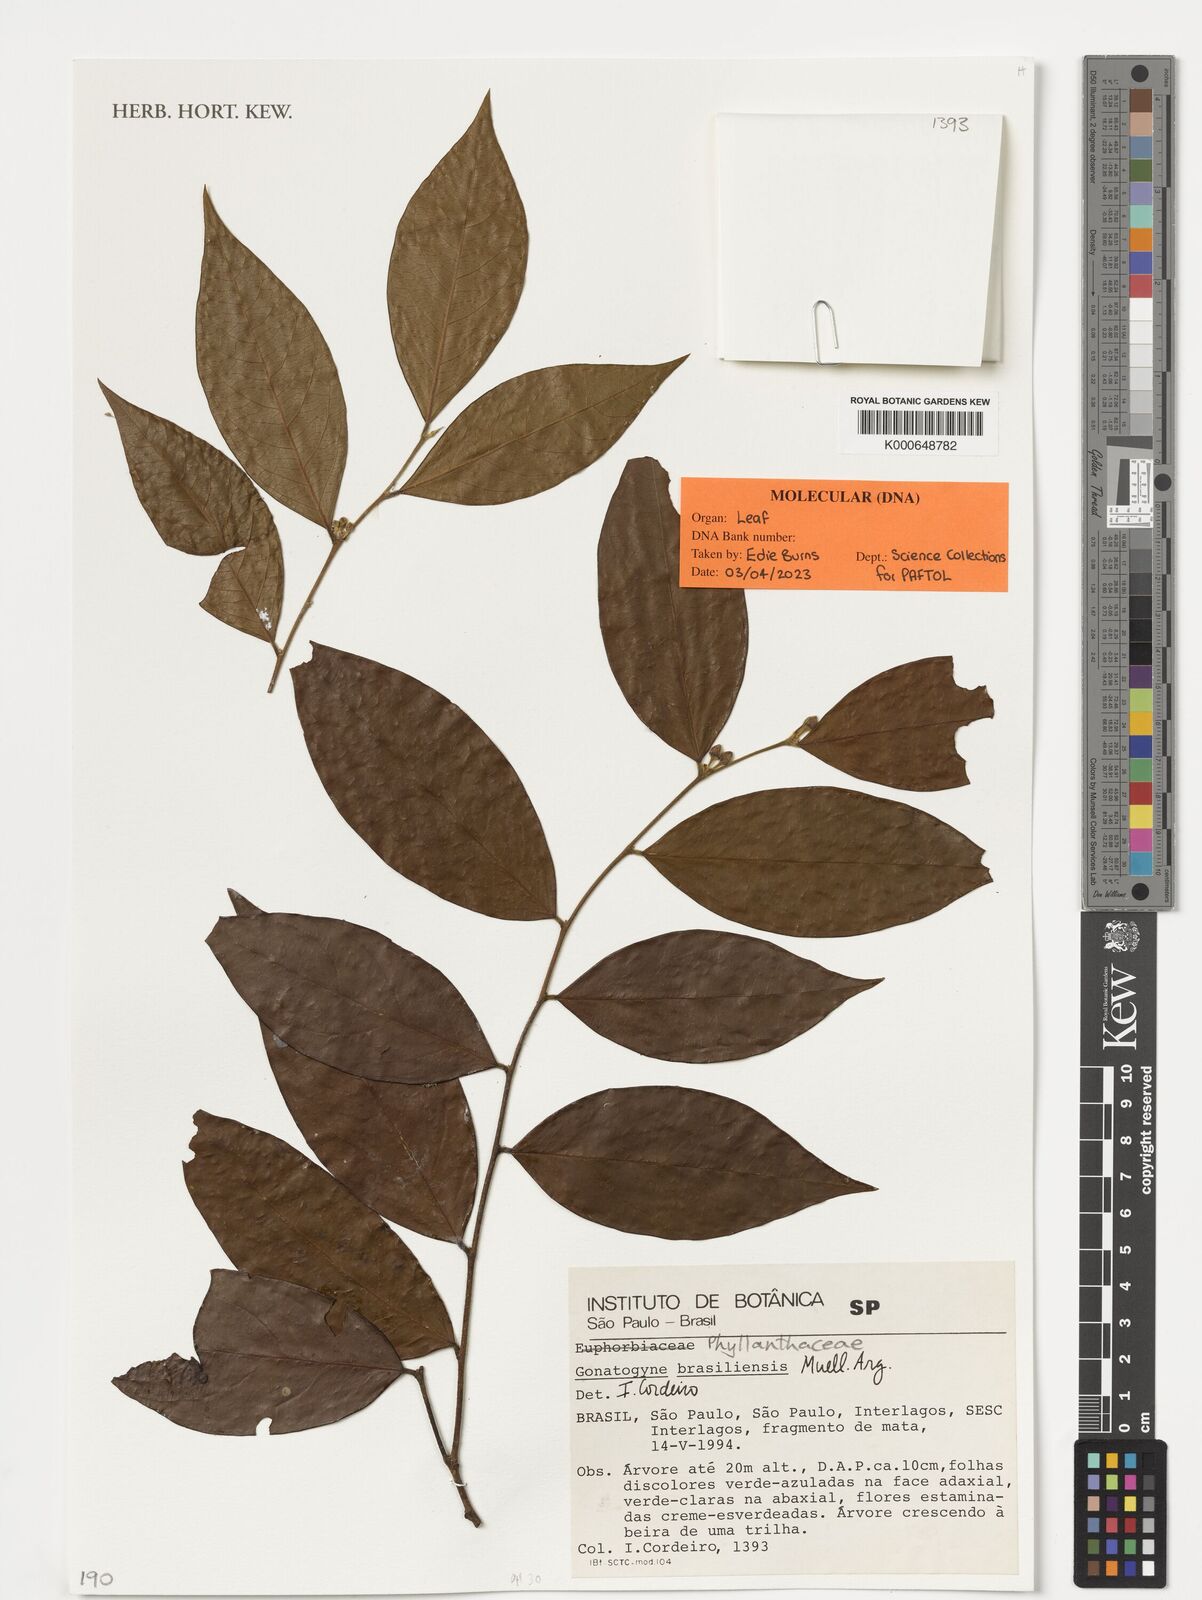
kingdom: Plantae
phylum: Tracheophyta
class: Magnoliopsida
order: Malpighiales
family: Phyllanthaceae
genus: Gonatogyne
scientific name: Gonatogyne brasiliensis
